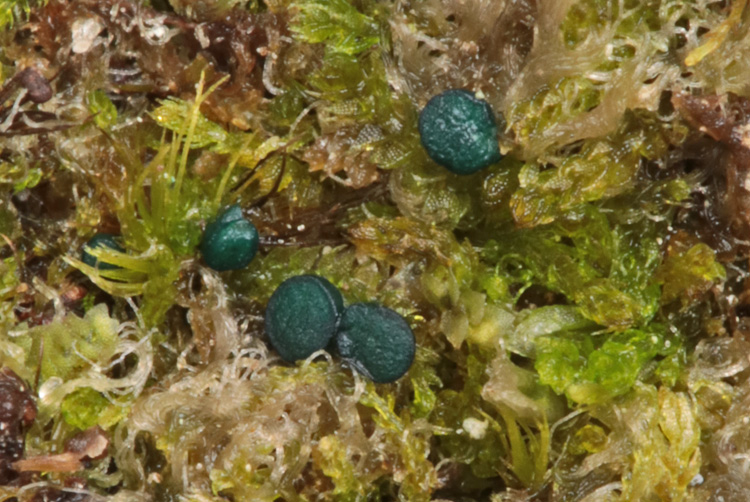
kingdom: Fungi
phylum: Ascomycota
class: Leotiomycetes
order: Leotiales
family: Mniaeciaceae
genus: Mniaecia
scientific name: Mniaecia jungermanniae
